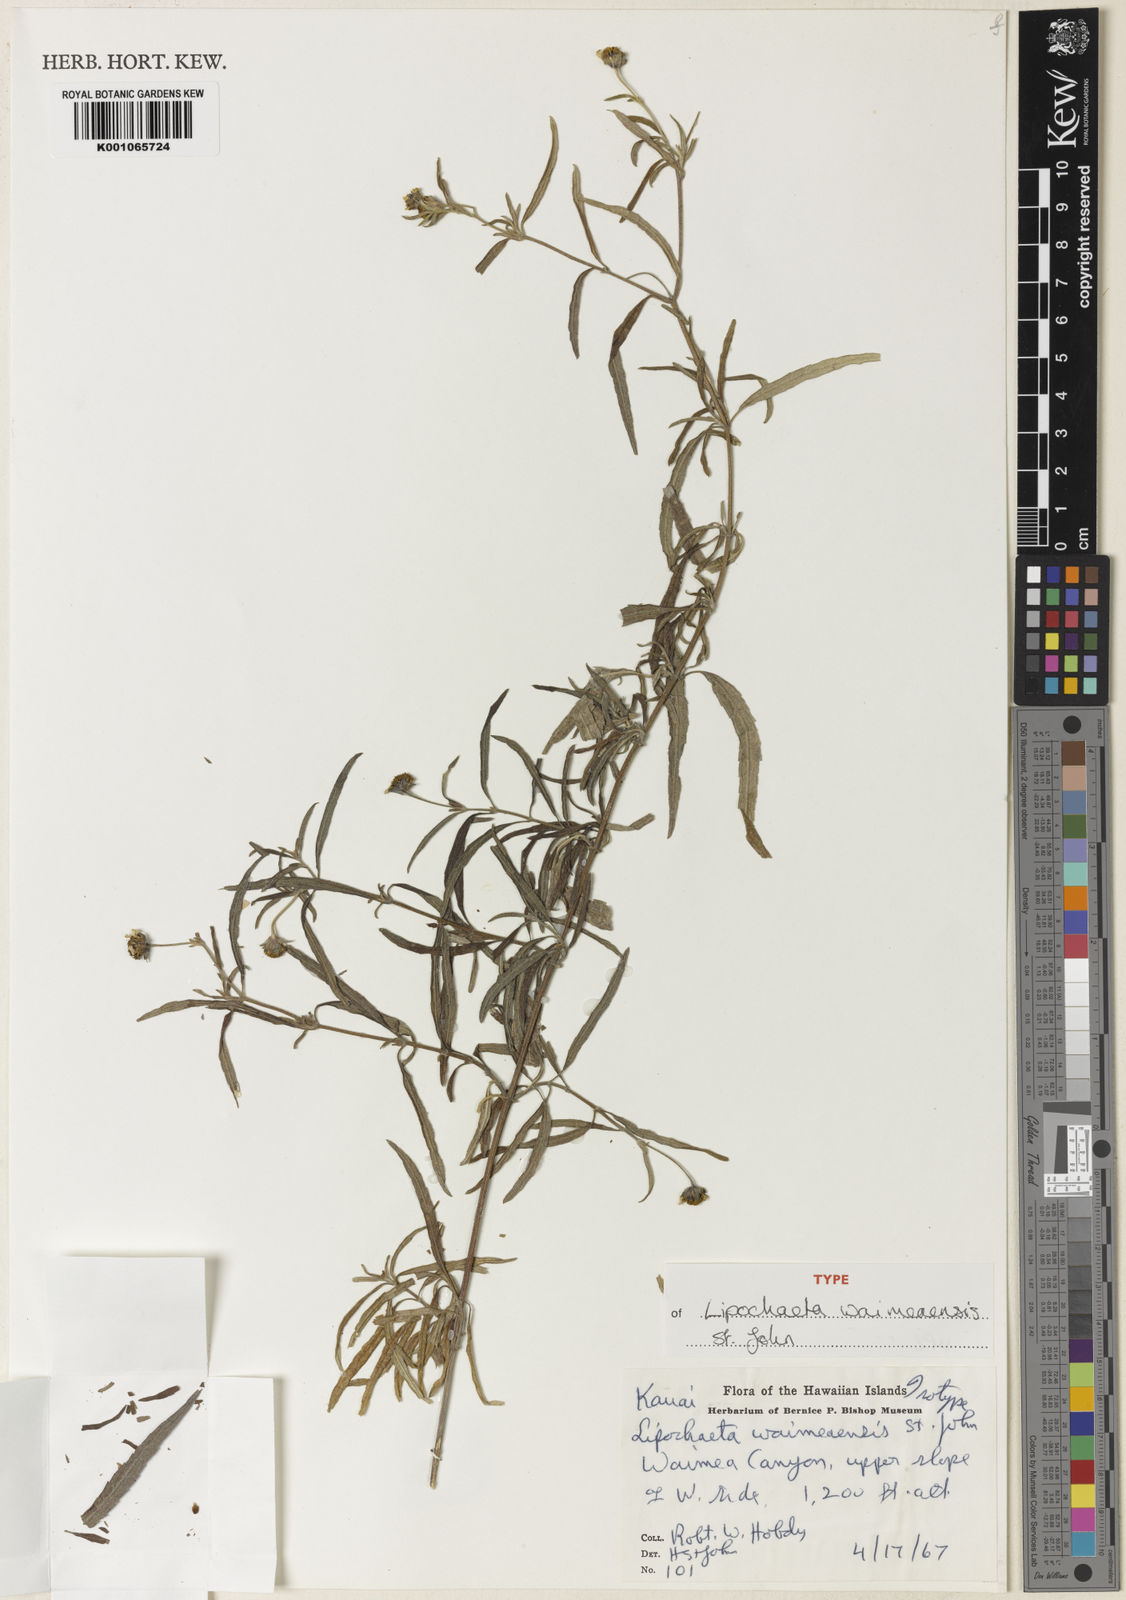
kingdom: Plantae
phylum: Tracheophyta
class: Magnoliopsida
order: Asterales
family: Asteraceae
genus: Lipochaeta
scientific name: Lipochaeta waimeaensis
